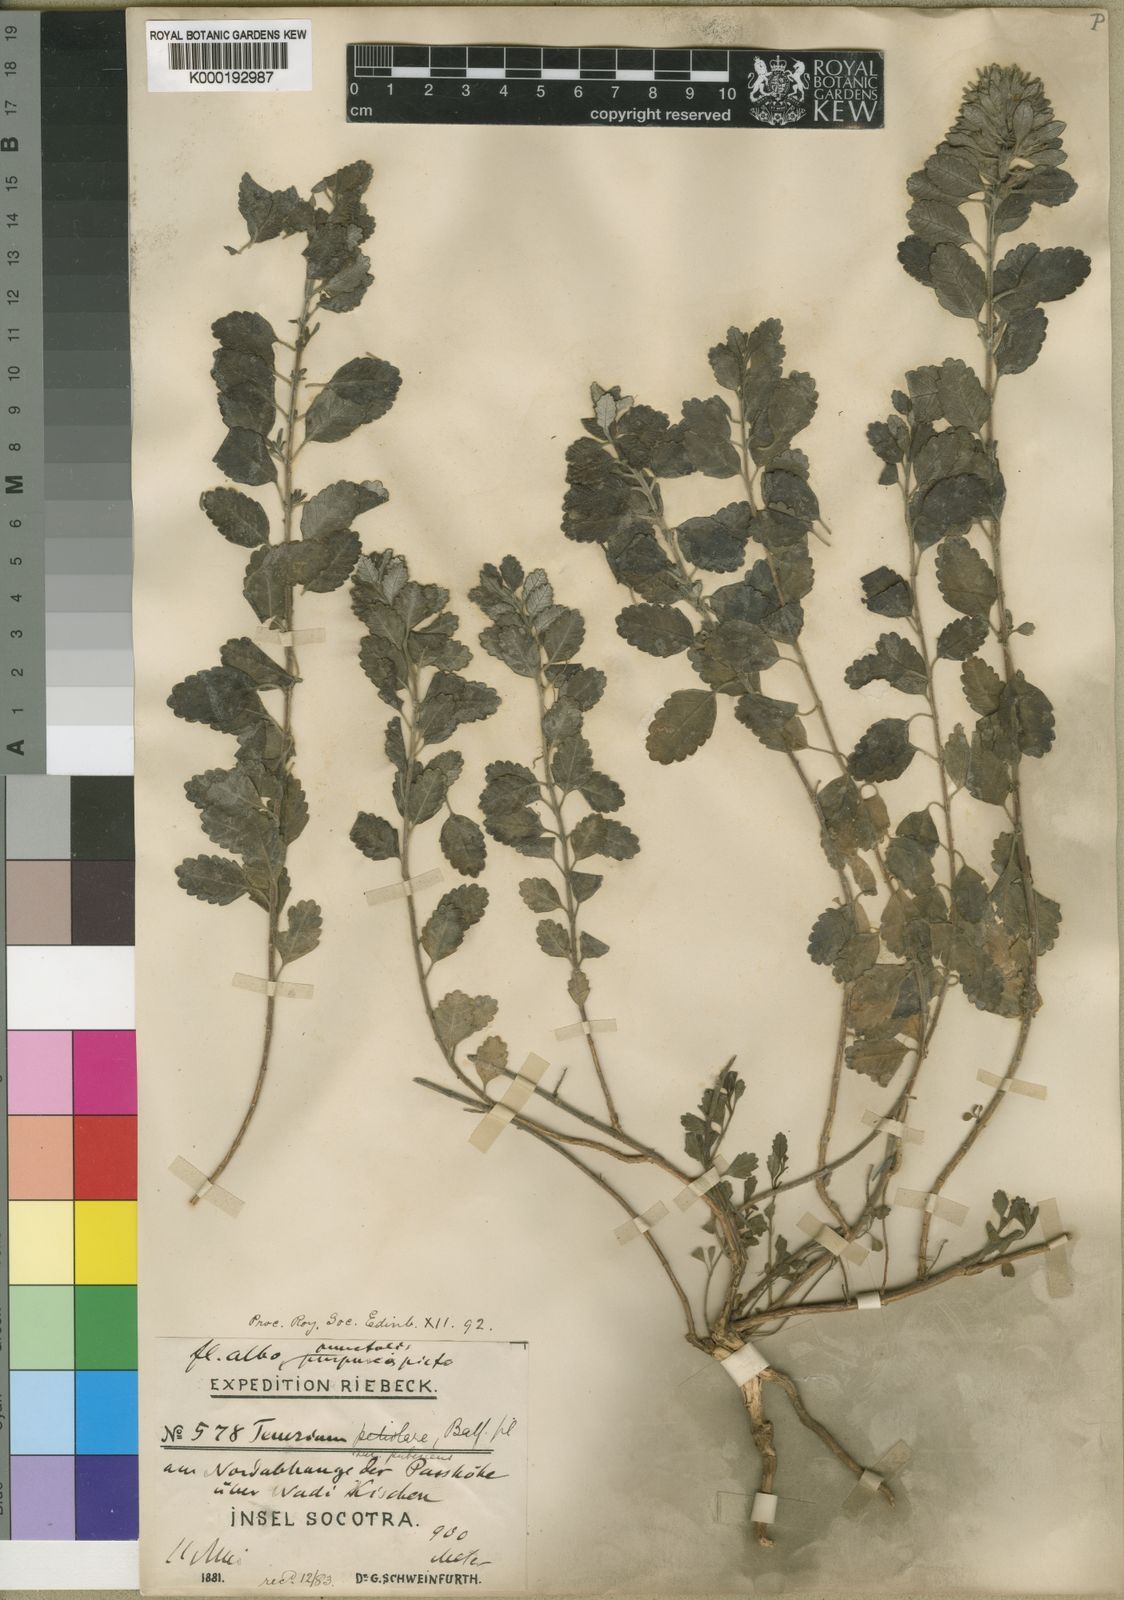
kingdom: Plantae
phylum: Tracheophyta
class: Magnoliopsida
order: Lamiales
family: Lamiaceae
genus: Teucrium
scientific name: Teucrium socotranum
